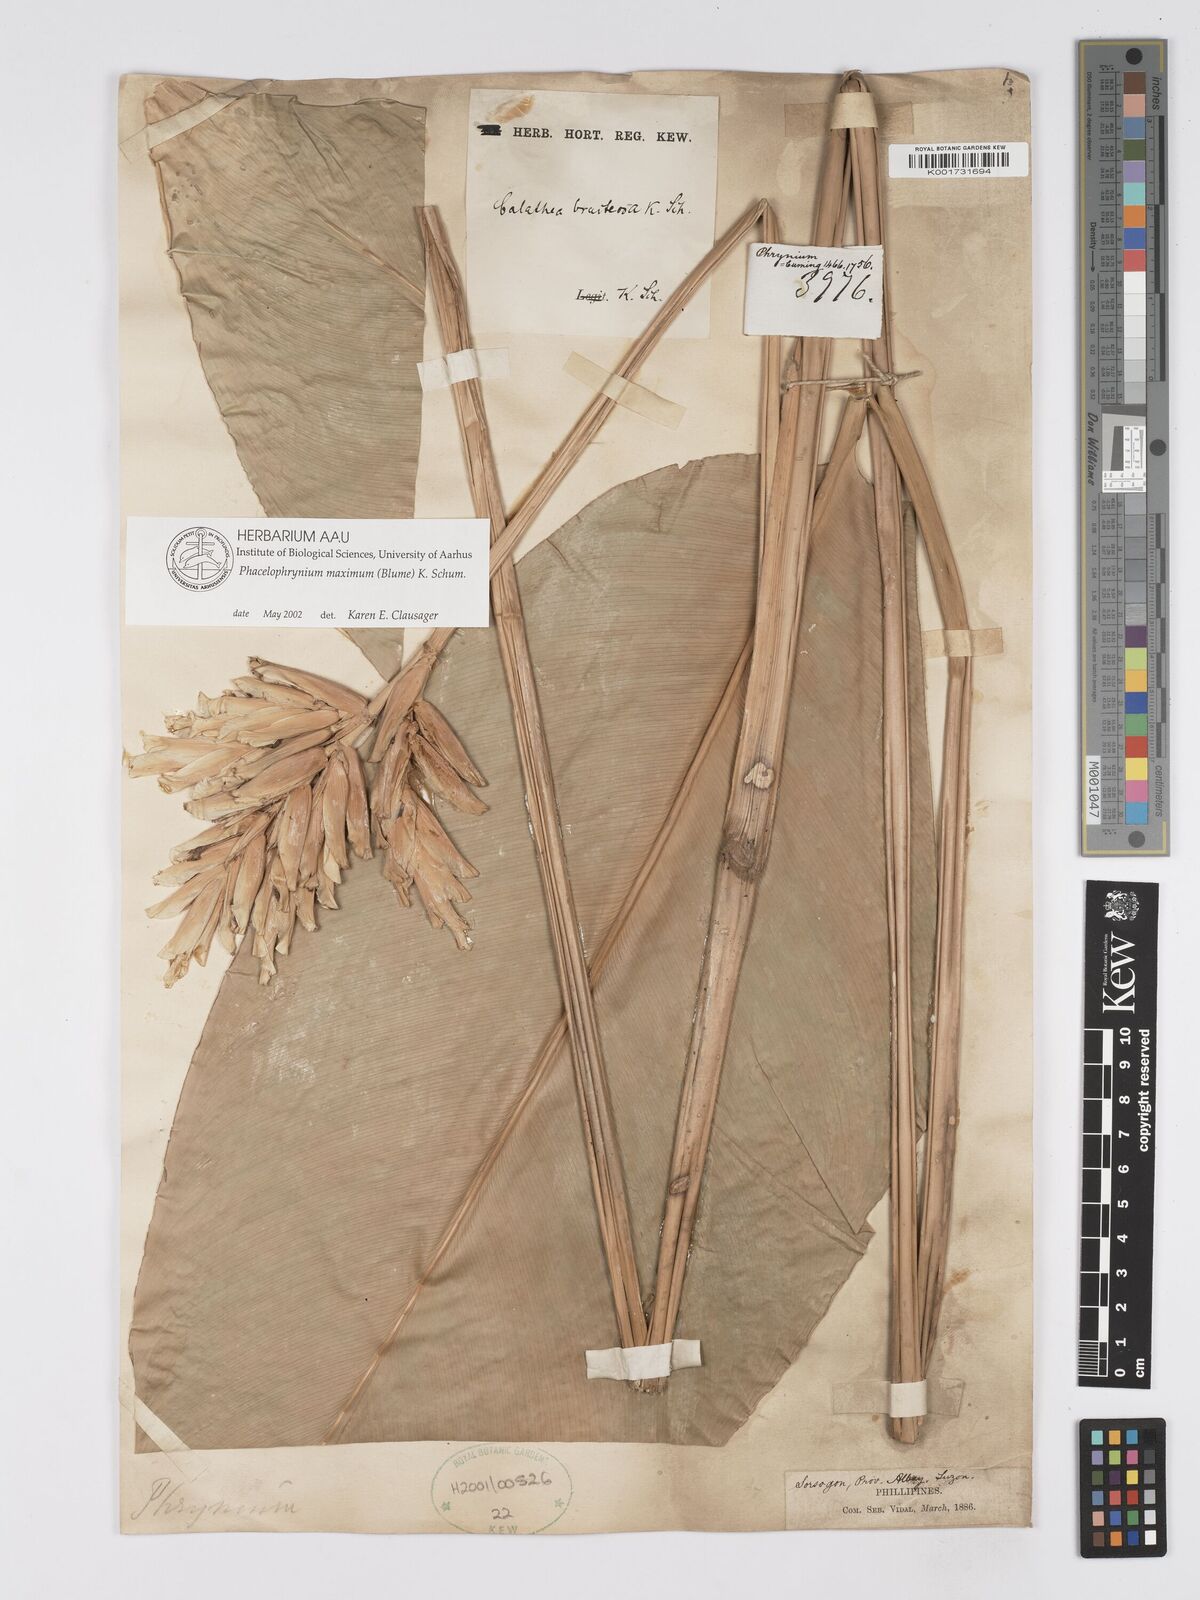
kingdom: Plantae
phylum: Tracheophyta
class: Liliopsida
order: Zingiberales
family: Marantaceae
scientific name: Marantaceae
